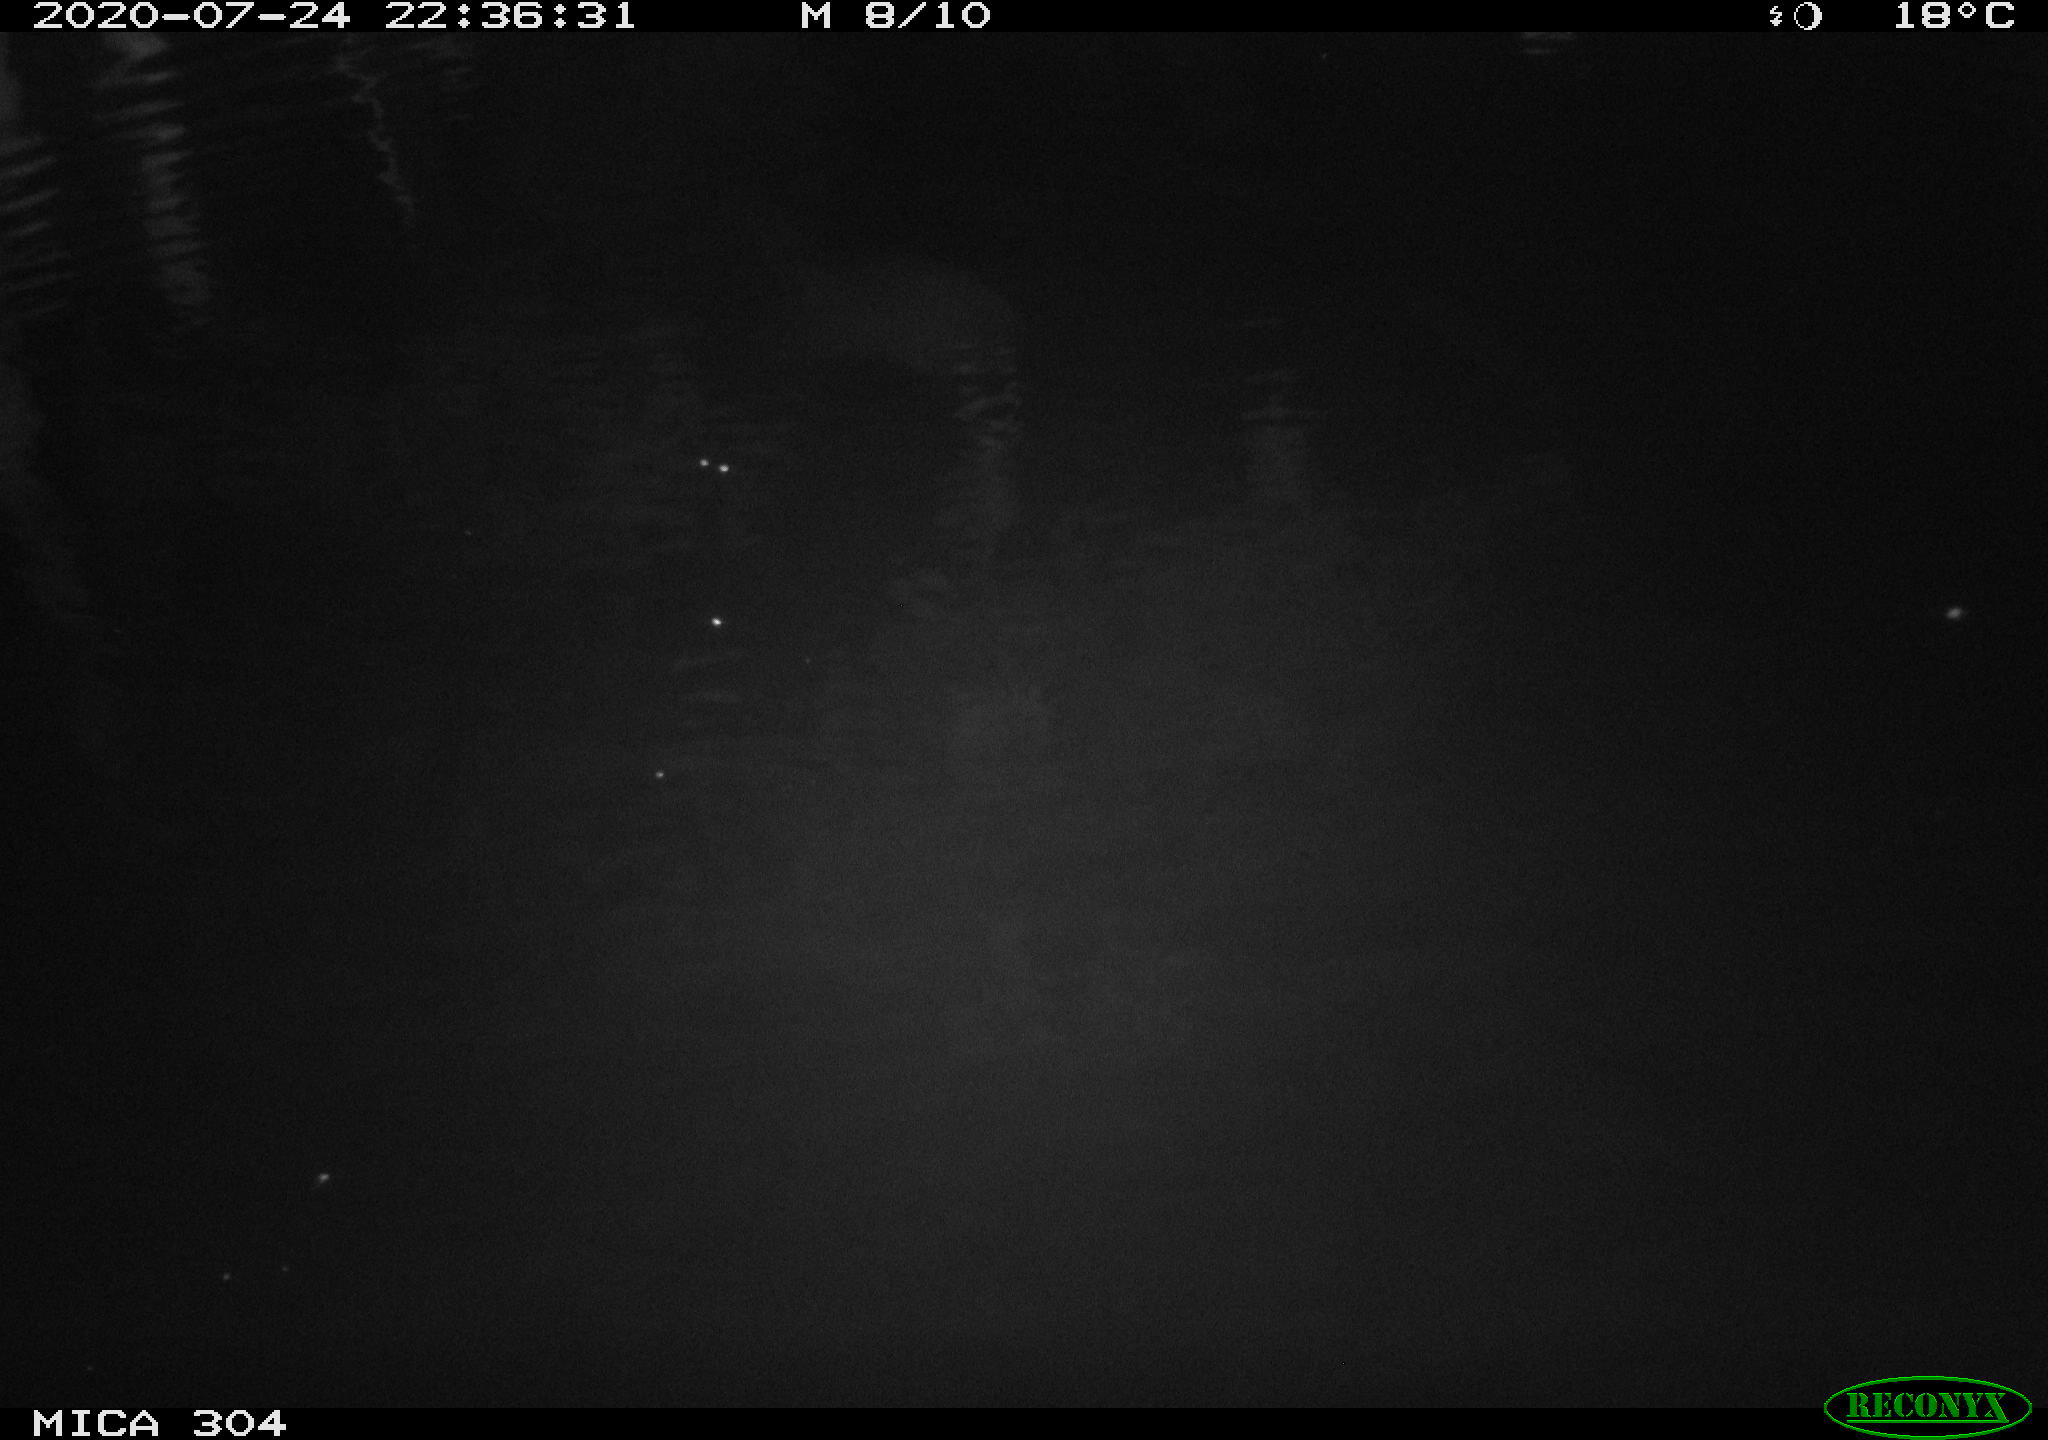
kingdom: Animalia
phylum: Chordata
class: Aves
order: Anseriformes
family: Anatidae
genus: Anas
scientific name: Anas platyrhynchos
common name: Mallard
